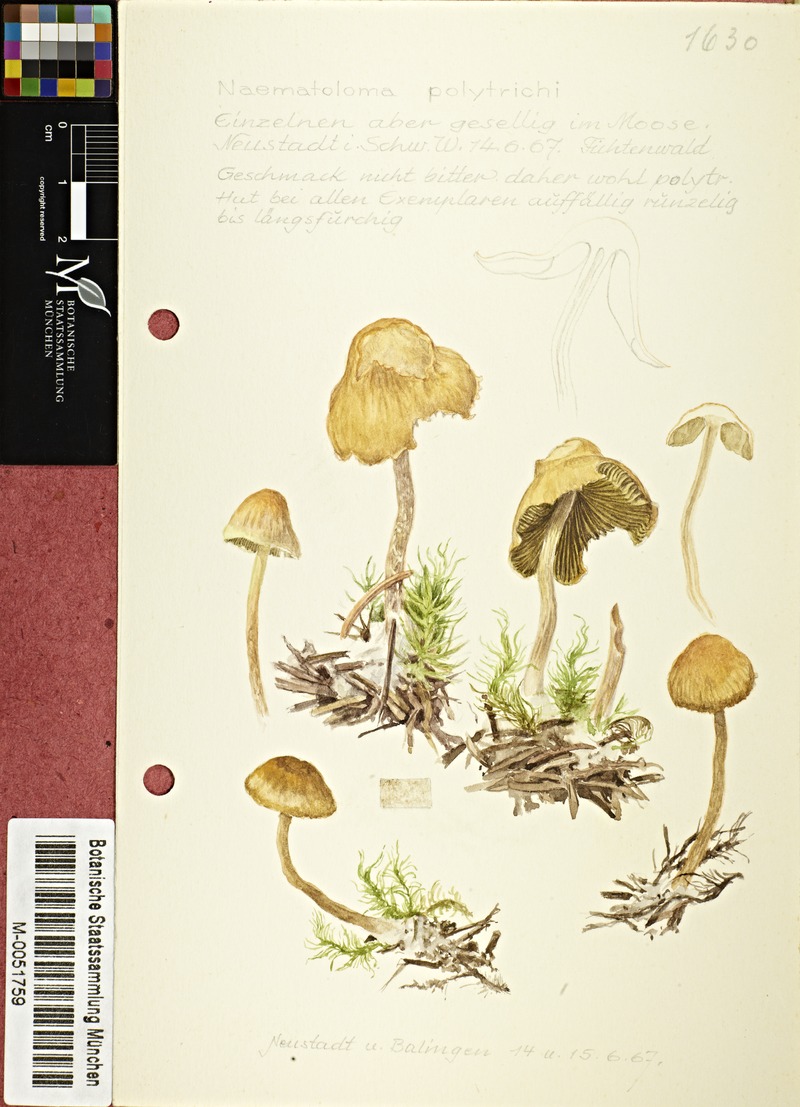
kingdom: Fungi
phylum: Basidiomycota
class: Agaricomycetes
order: Agaricales
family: Strophariaceae
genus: Hypholoma
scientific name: Hypholoma polytrichi
